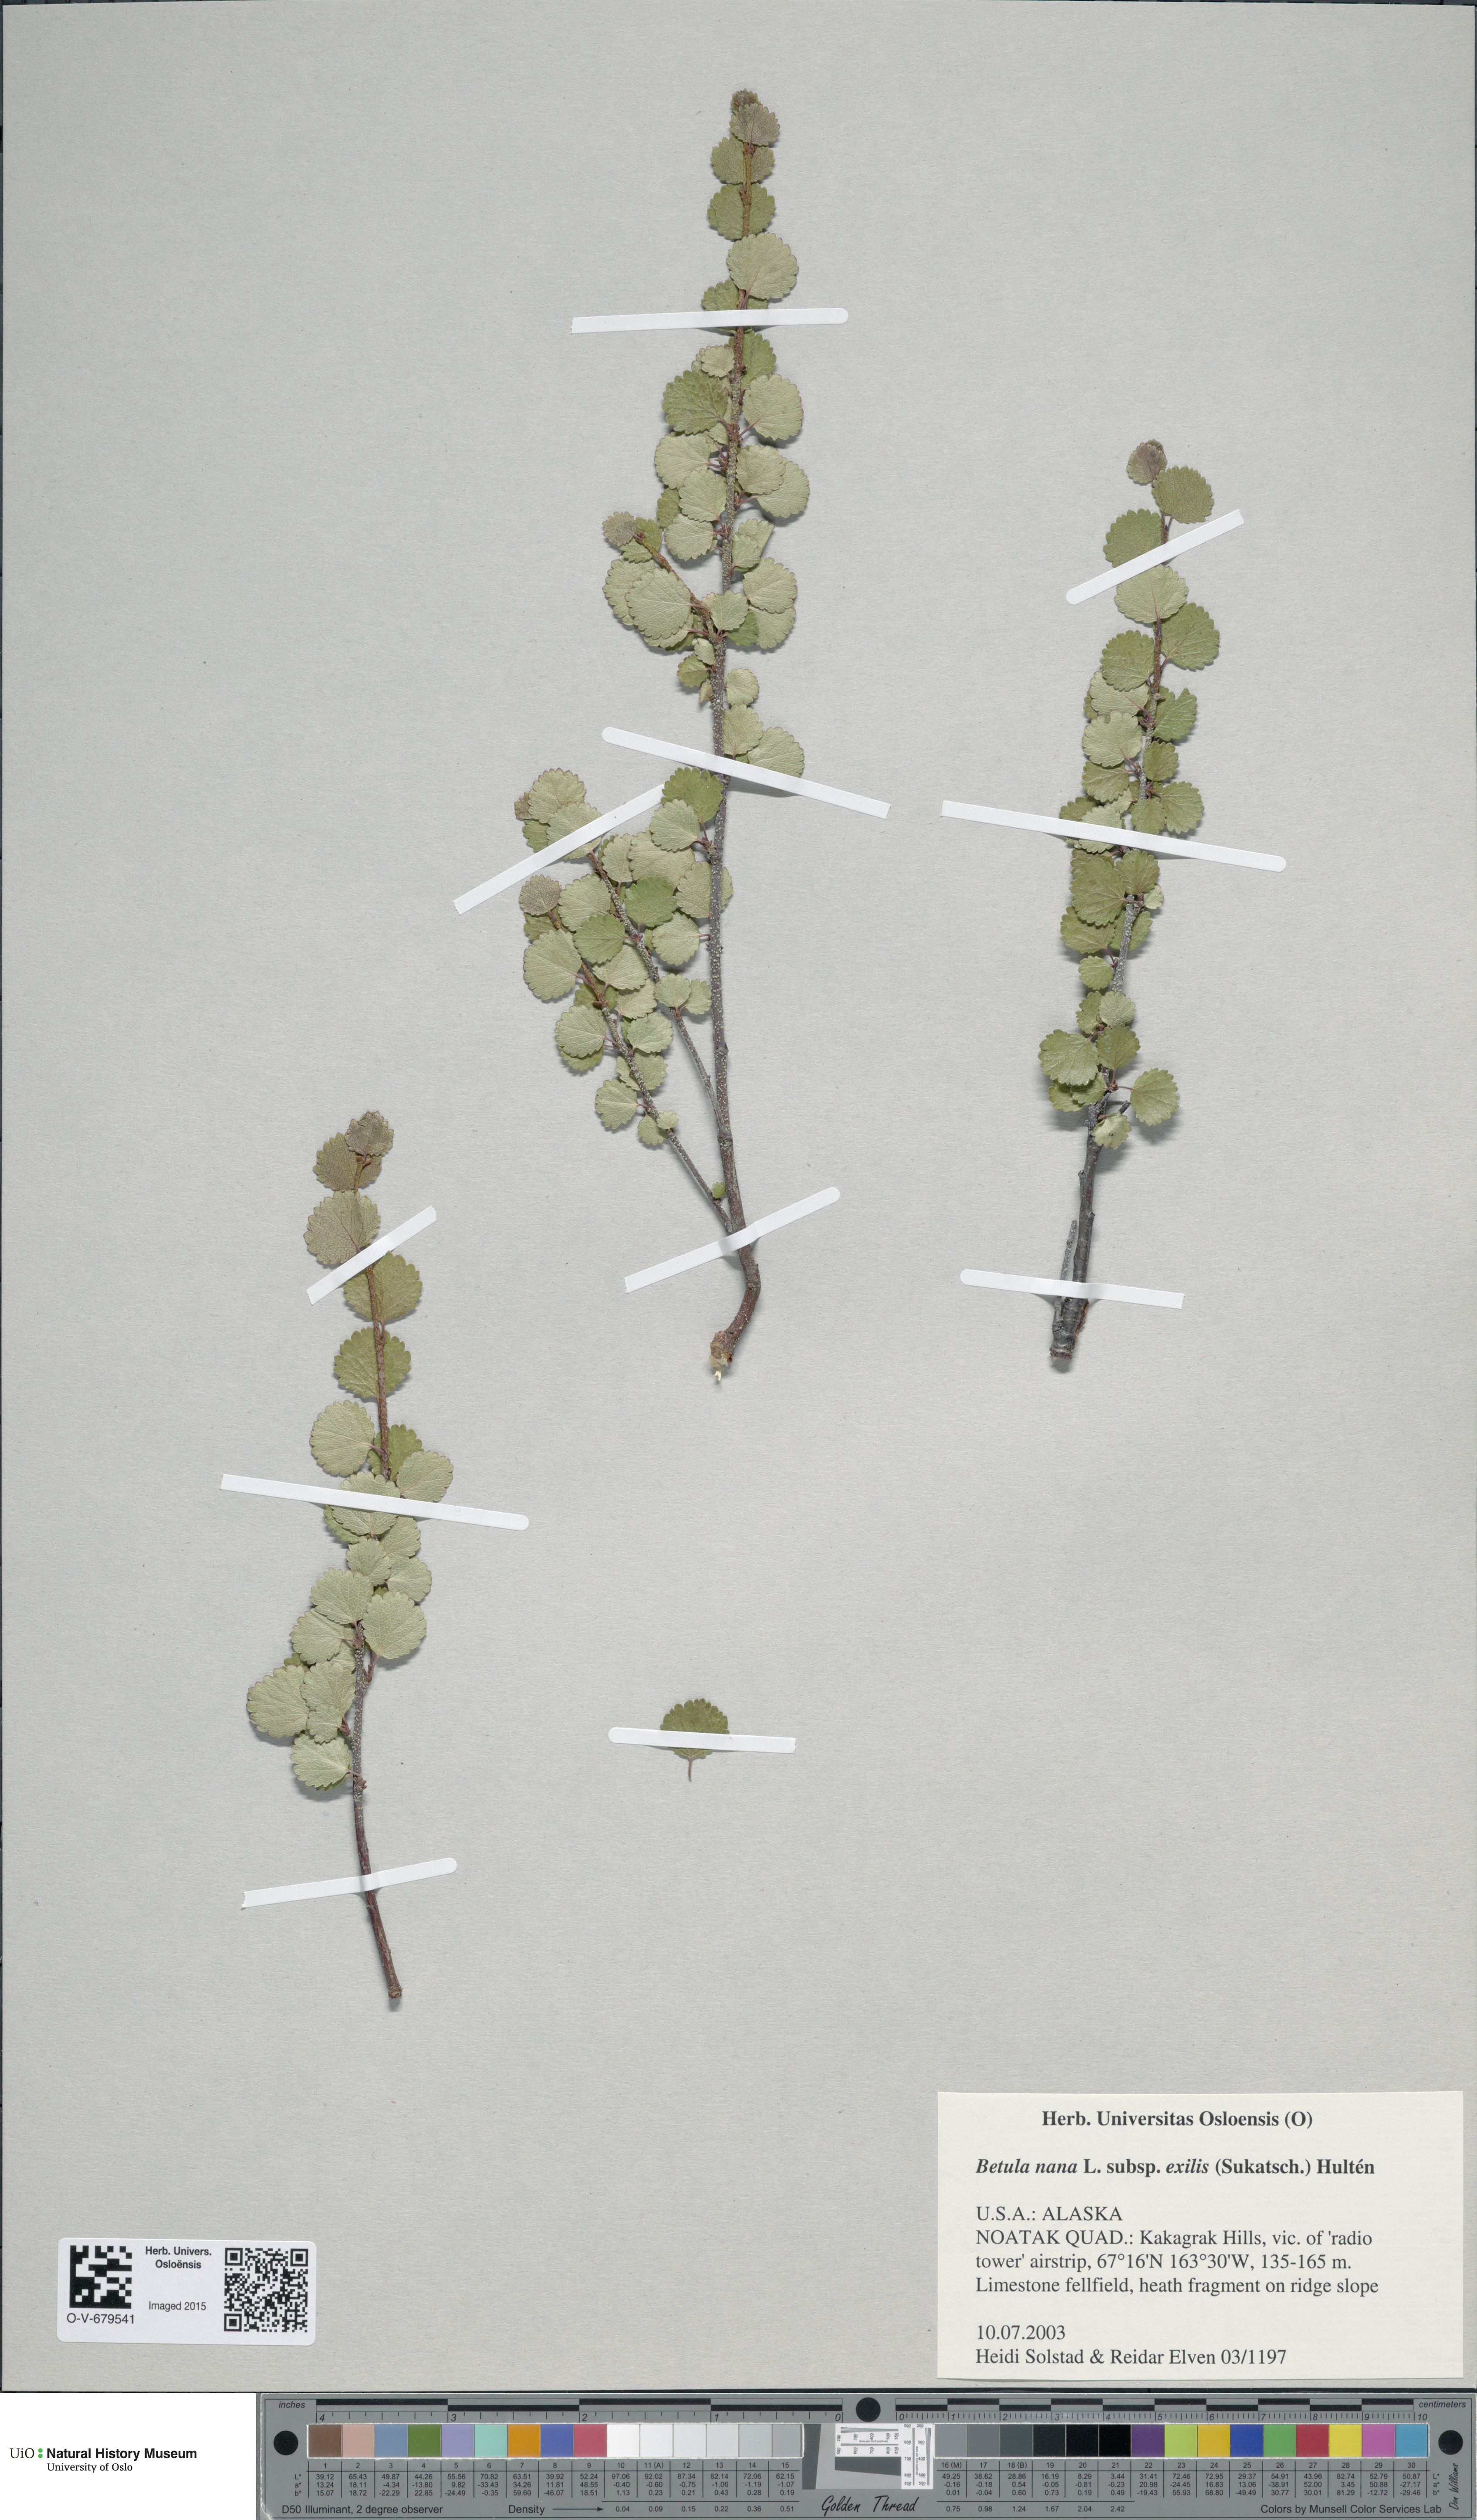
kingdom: Plantae
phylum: Tracheophyta
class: Magnoliopsida
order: Fagales
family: Betulaceae
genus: Betula
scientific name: Betula glandulosa
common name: Dwarf birch
